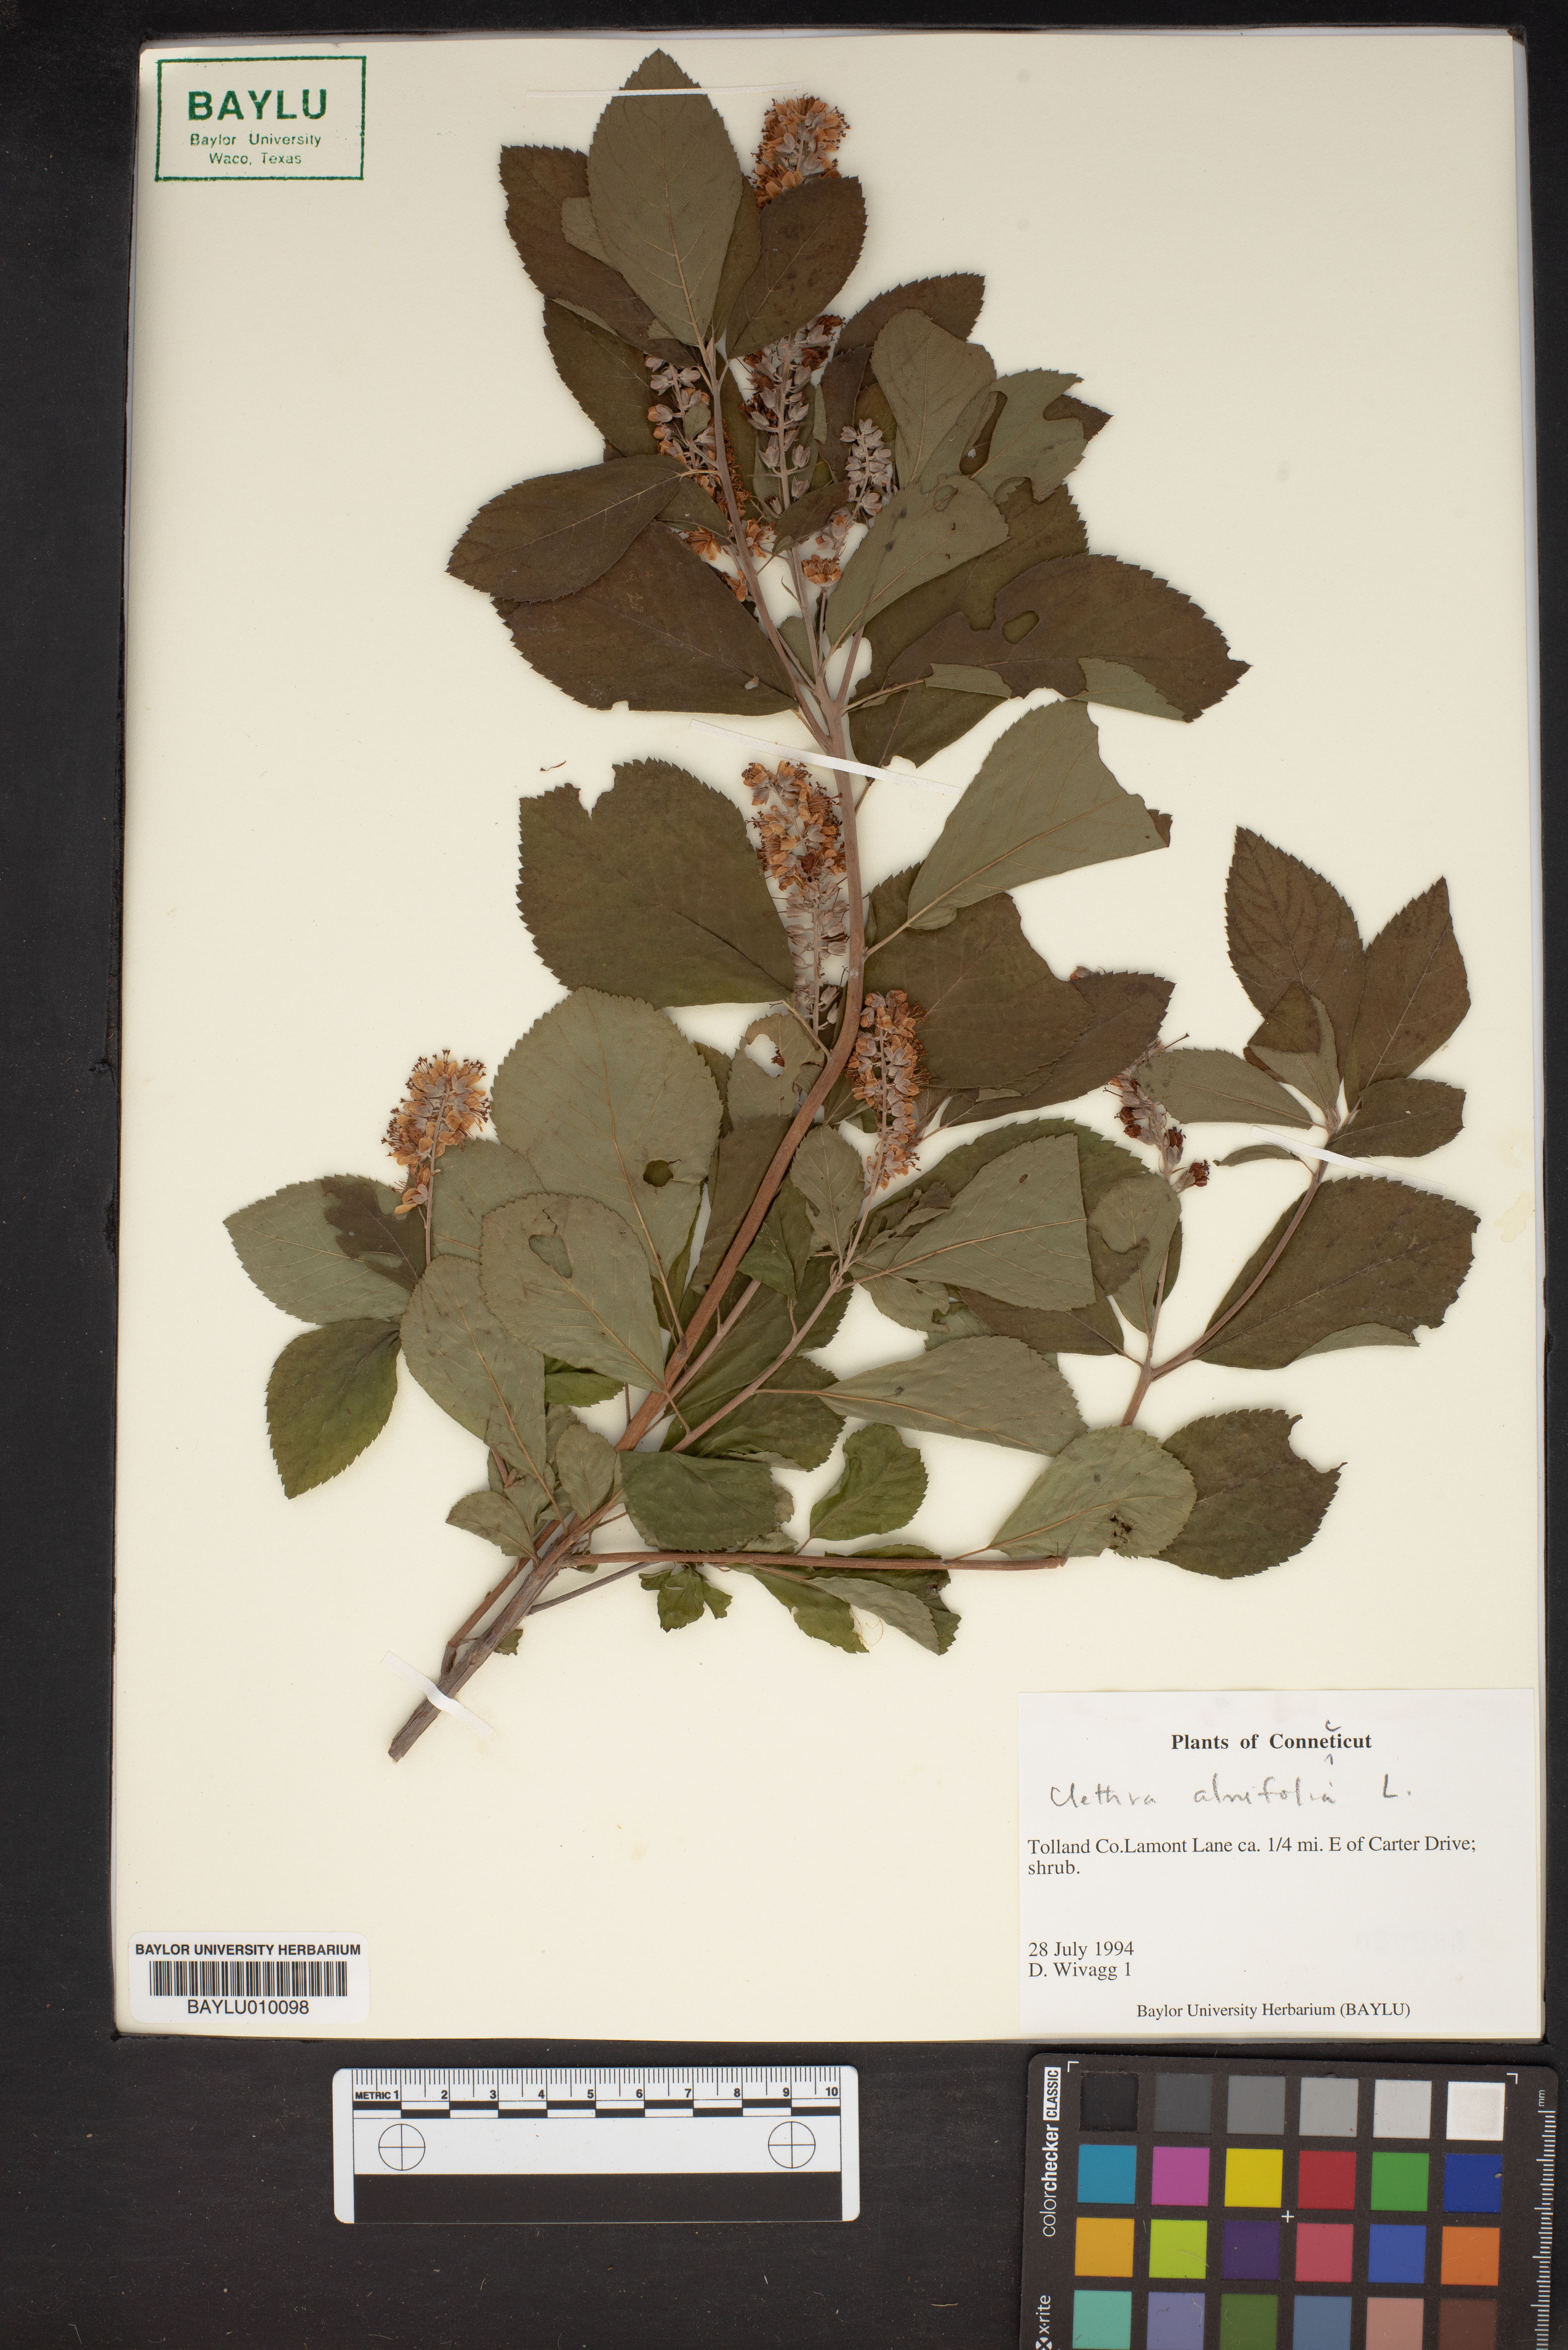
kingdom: Plantae
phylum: Tracheophyta
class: Magnoliopsida
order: Ericales
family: Clethraceae
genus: Clethra
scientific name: Clethra alnifolia
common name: Sweet pepperbush
